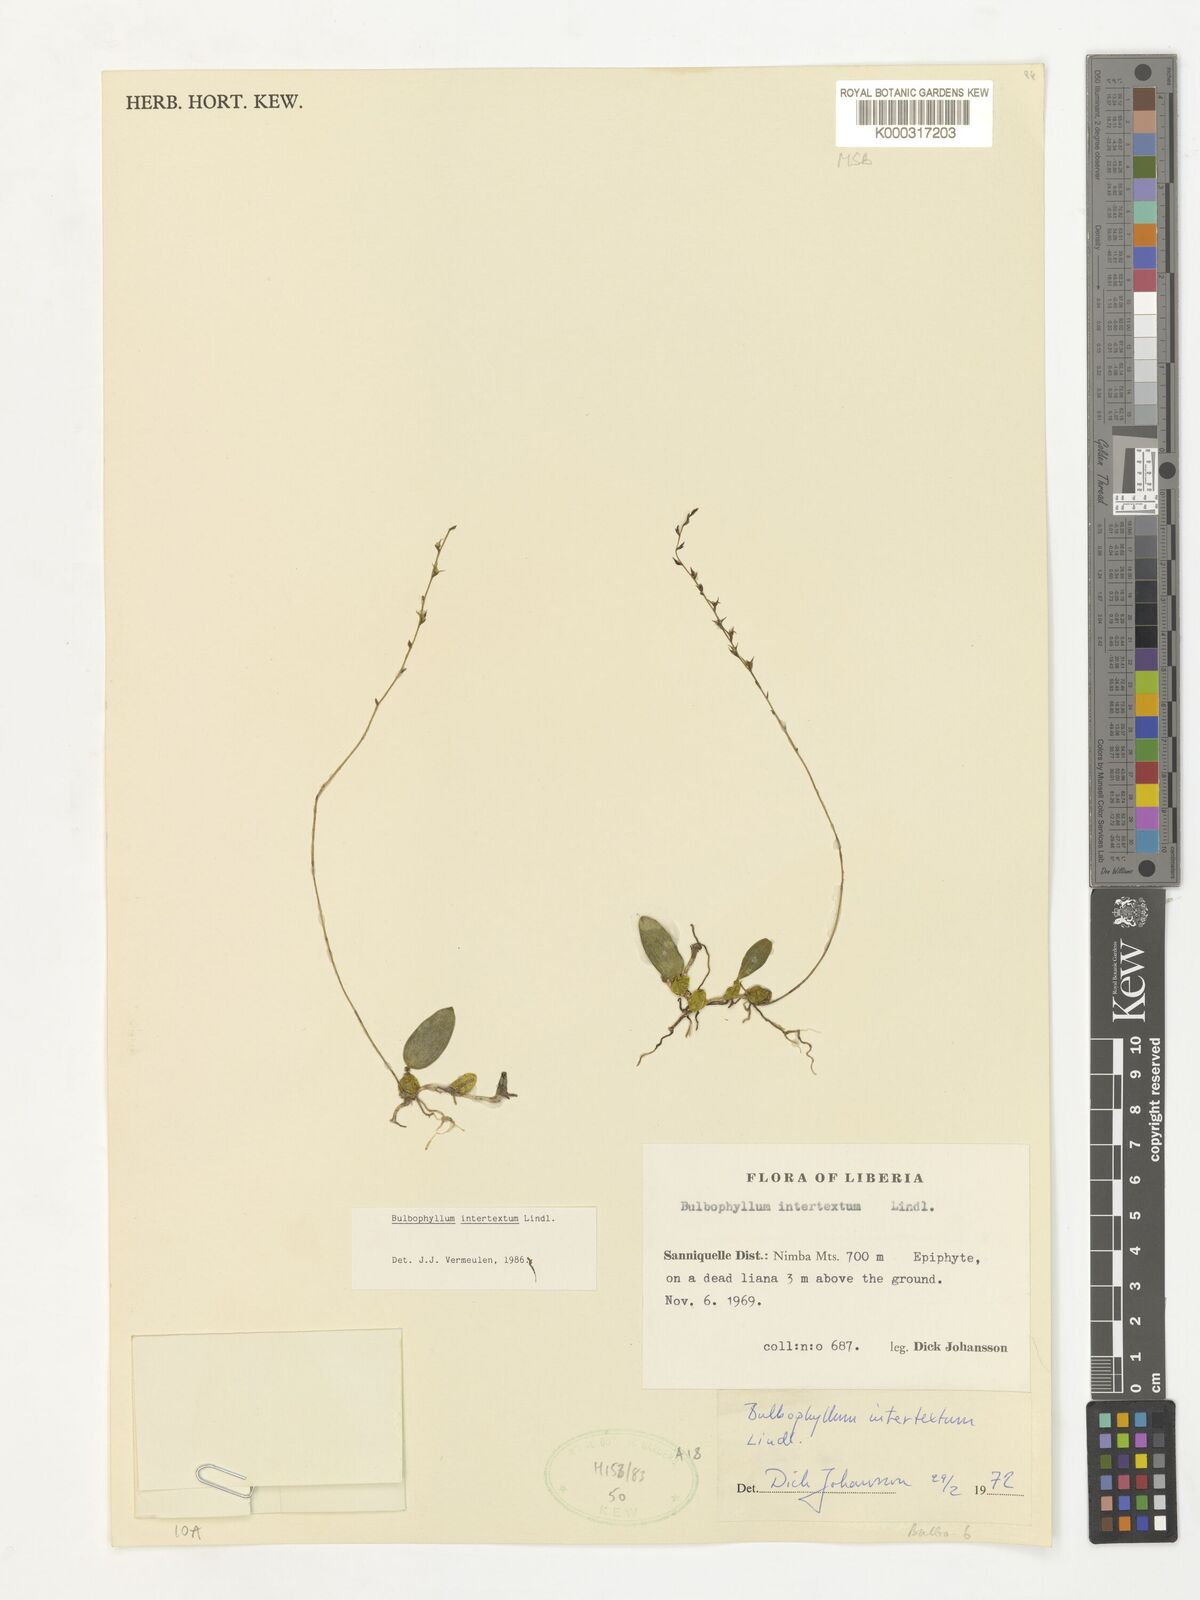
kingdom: Plantae
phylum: Tracheophyta
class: Liliopsida
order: Asparagales
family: Orchidaceae
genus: Bulbophyllum
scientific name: Bulbophyllum intertextum
